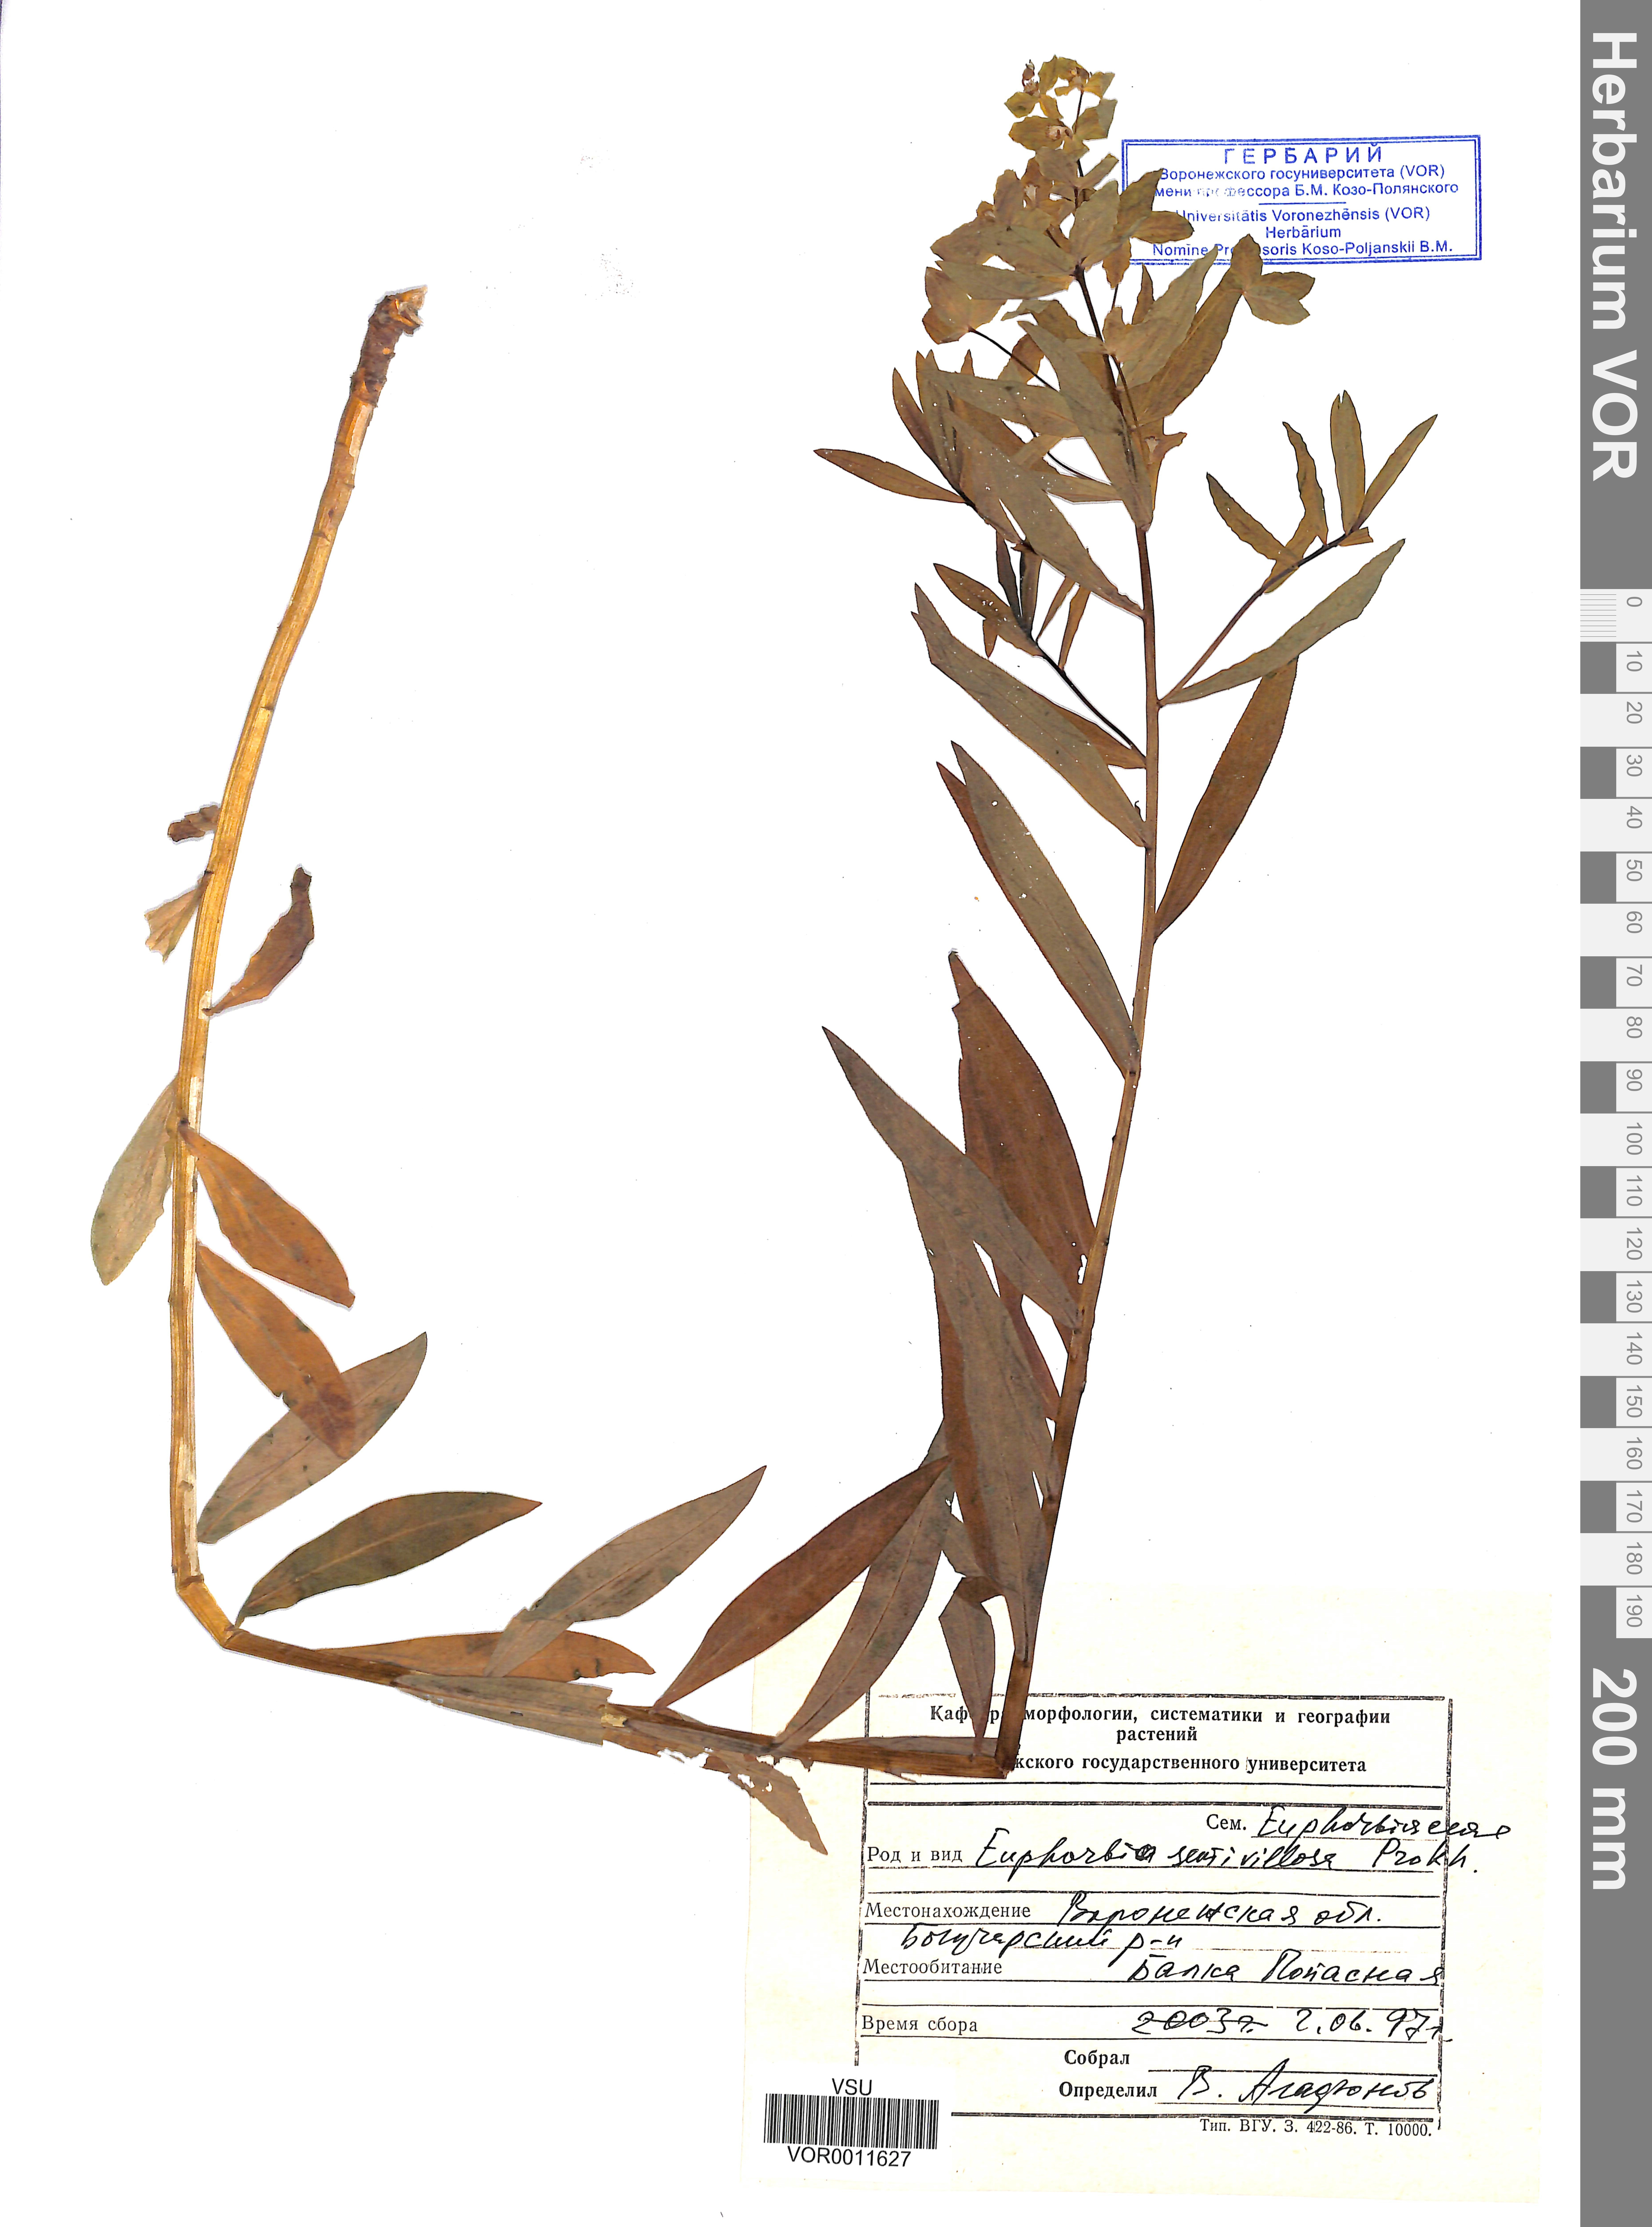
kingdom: Plantae
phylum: Tracheophyta
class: Magnoliopsida
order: Malpighiales
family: Euphorbiaceae
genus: Euphorbia
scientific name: Euphorbia semivillosa
